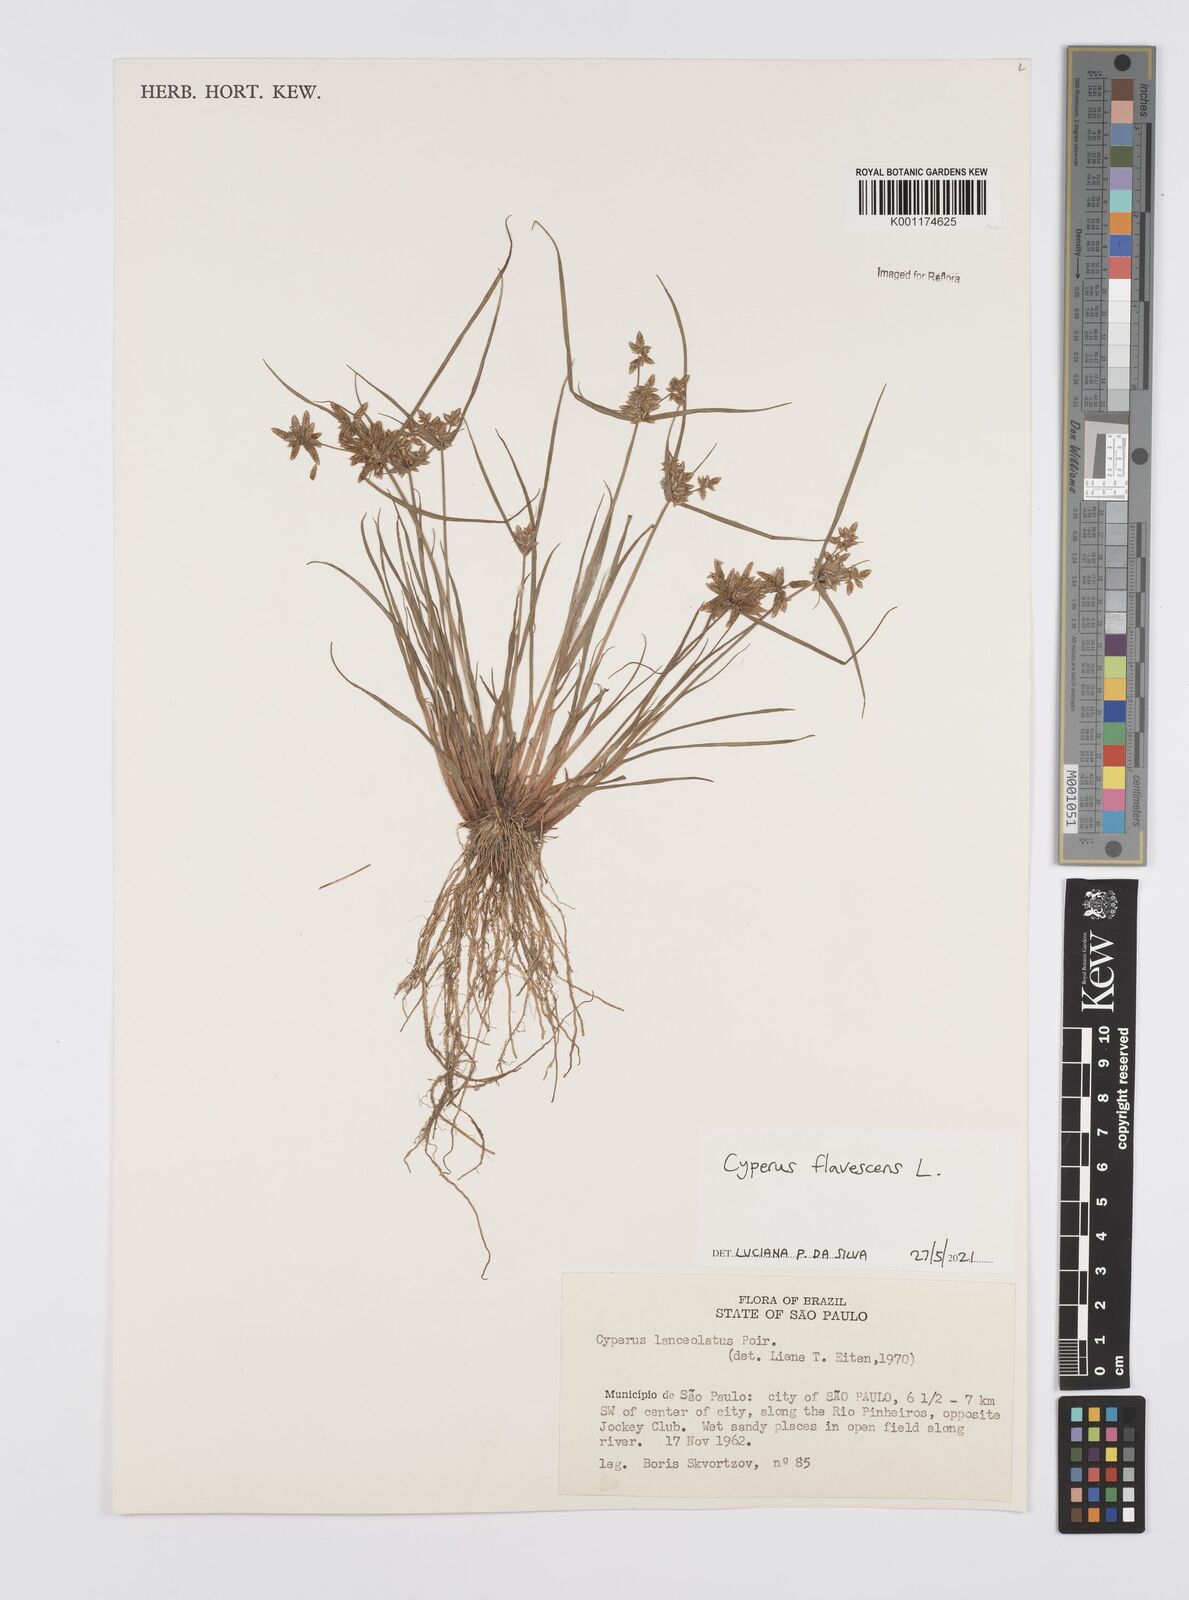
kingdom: Plantae
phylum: Tracheophyta
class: Liliopsida
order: Poales
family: Cyperaceae
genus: Cyperus
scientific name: Cyperus flavescens
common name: Yellow galingale
